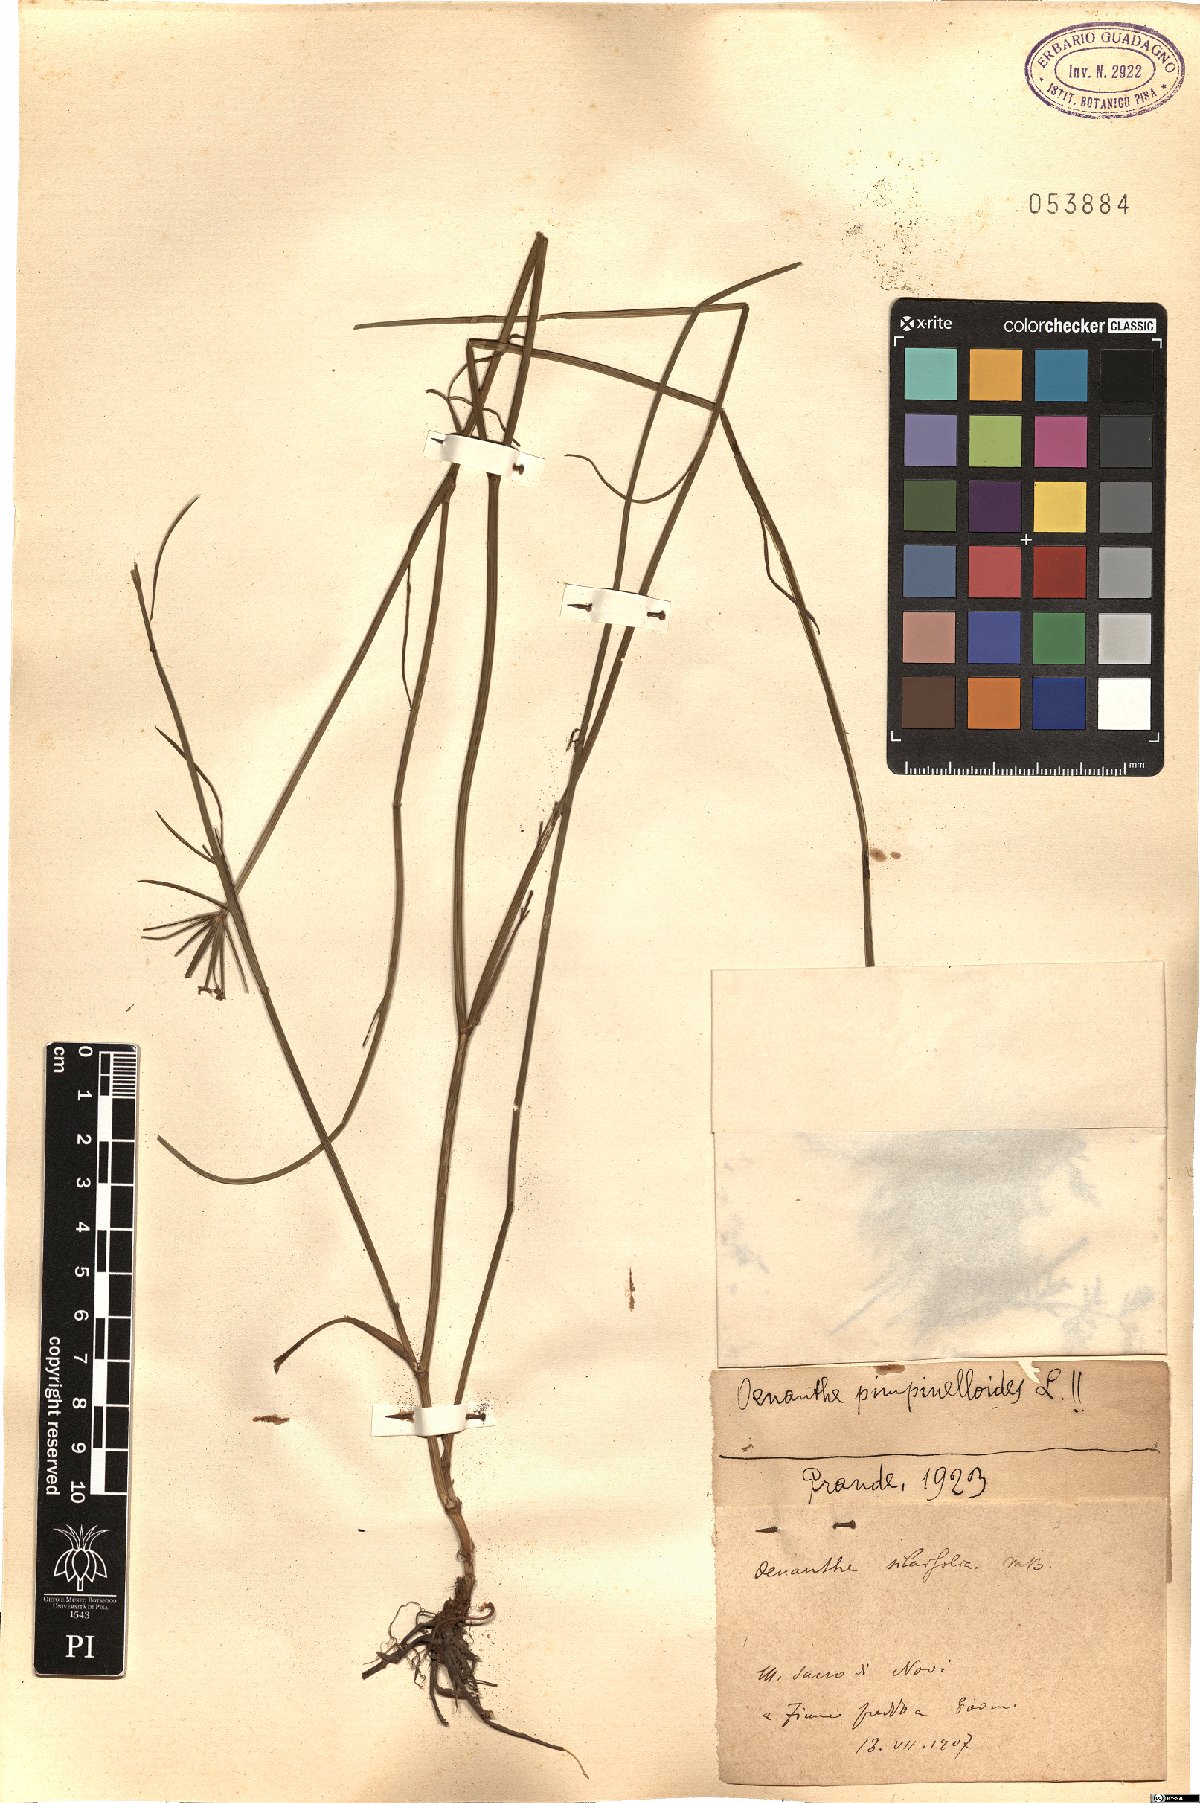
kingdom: Plantae
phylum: Tracheophyta
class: Magnoliopsida
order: Apiales
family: Apiaceae
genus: Oenanthe
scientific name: Oenanthe pimpinelloides
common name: Corky-fruited water-dropwort
